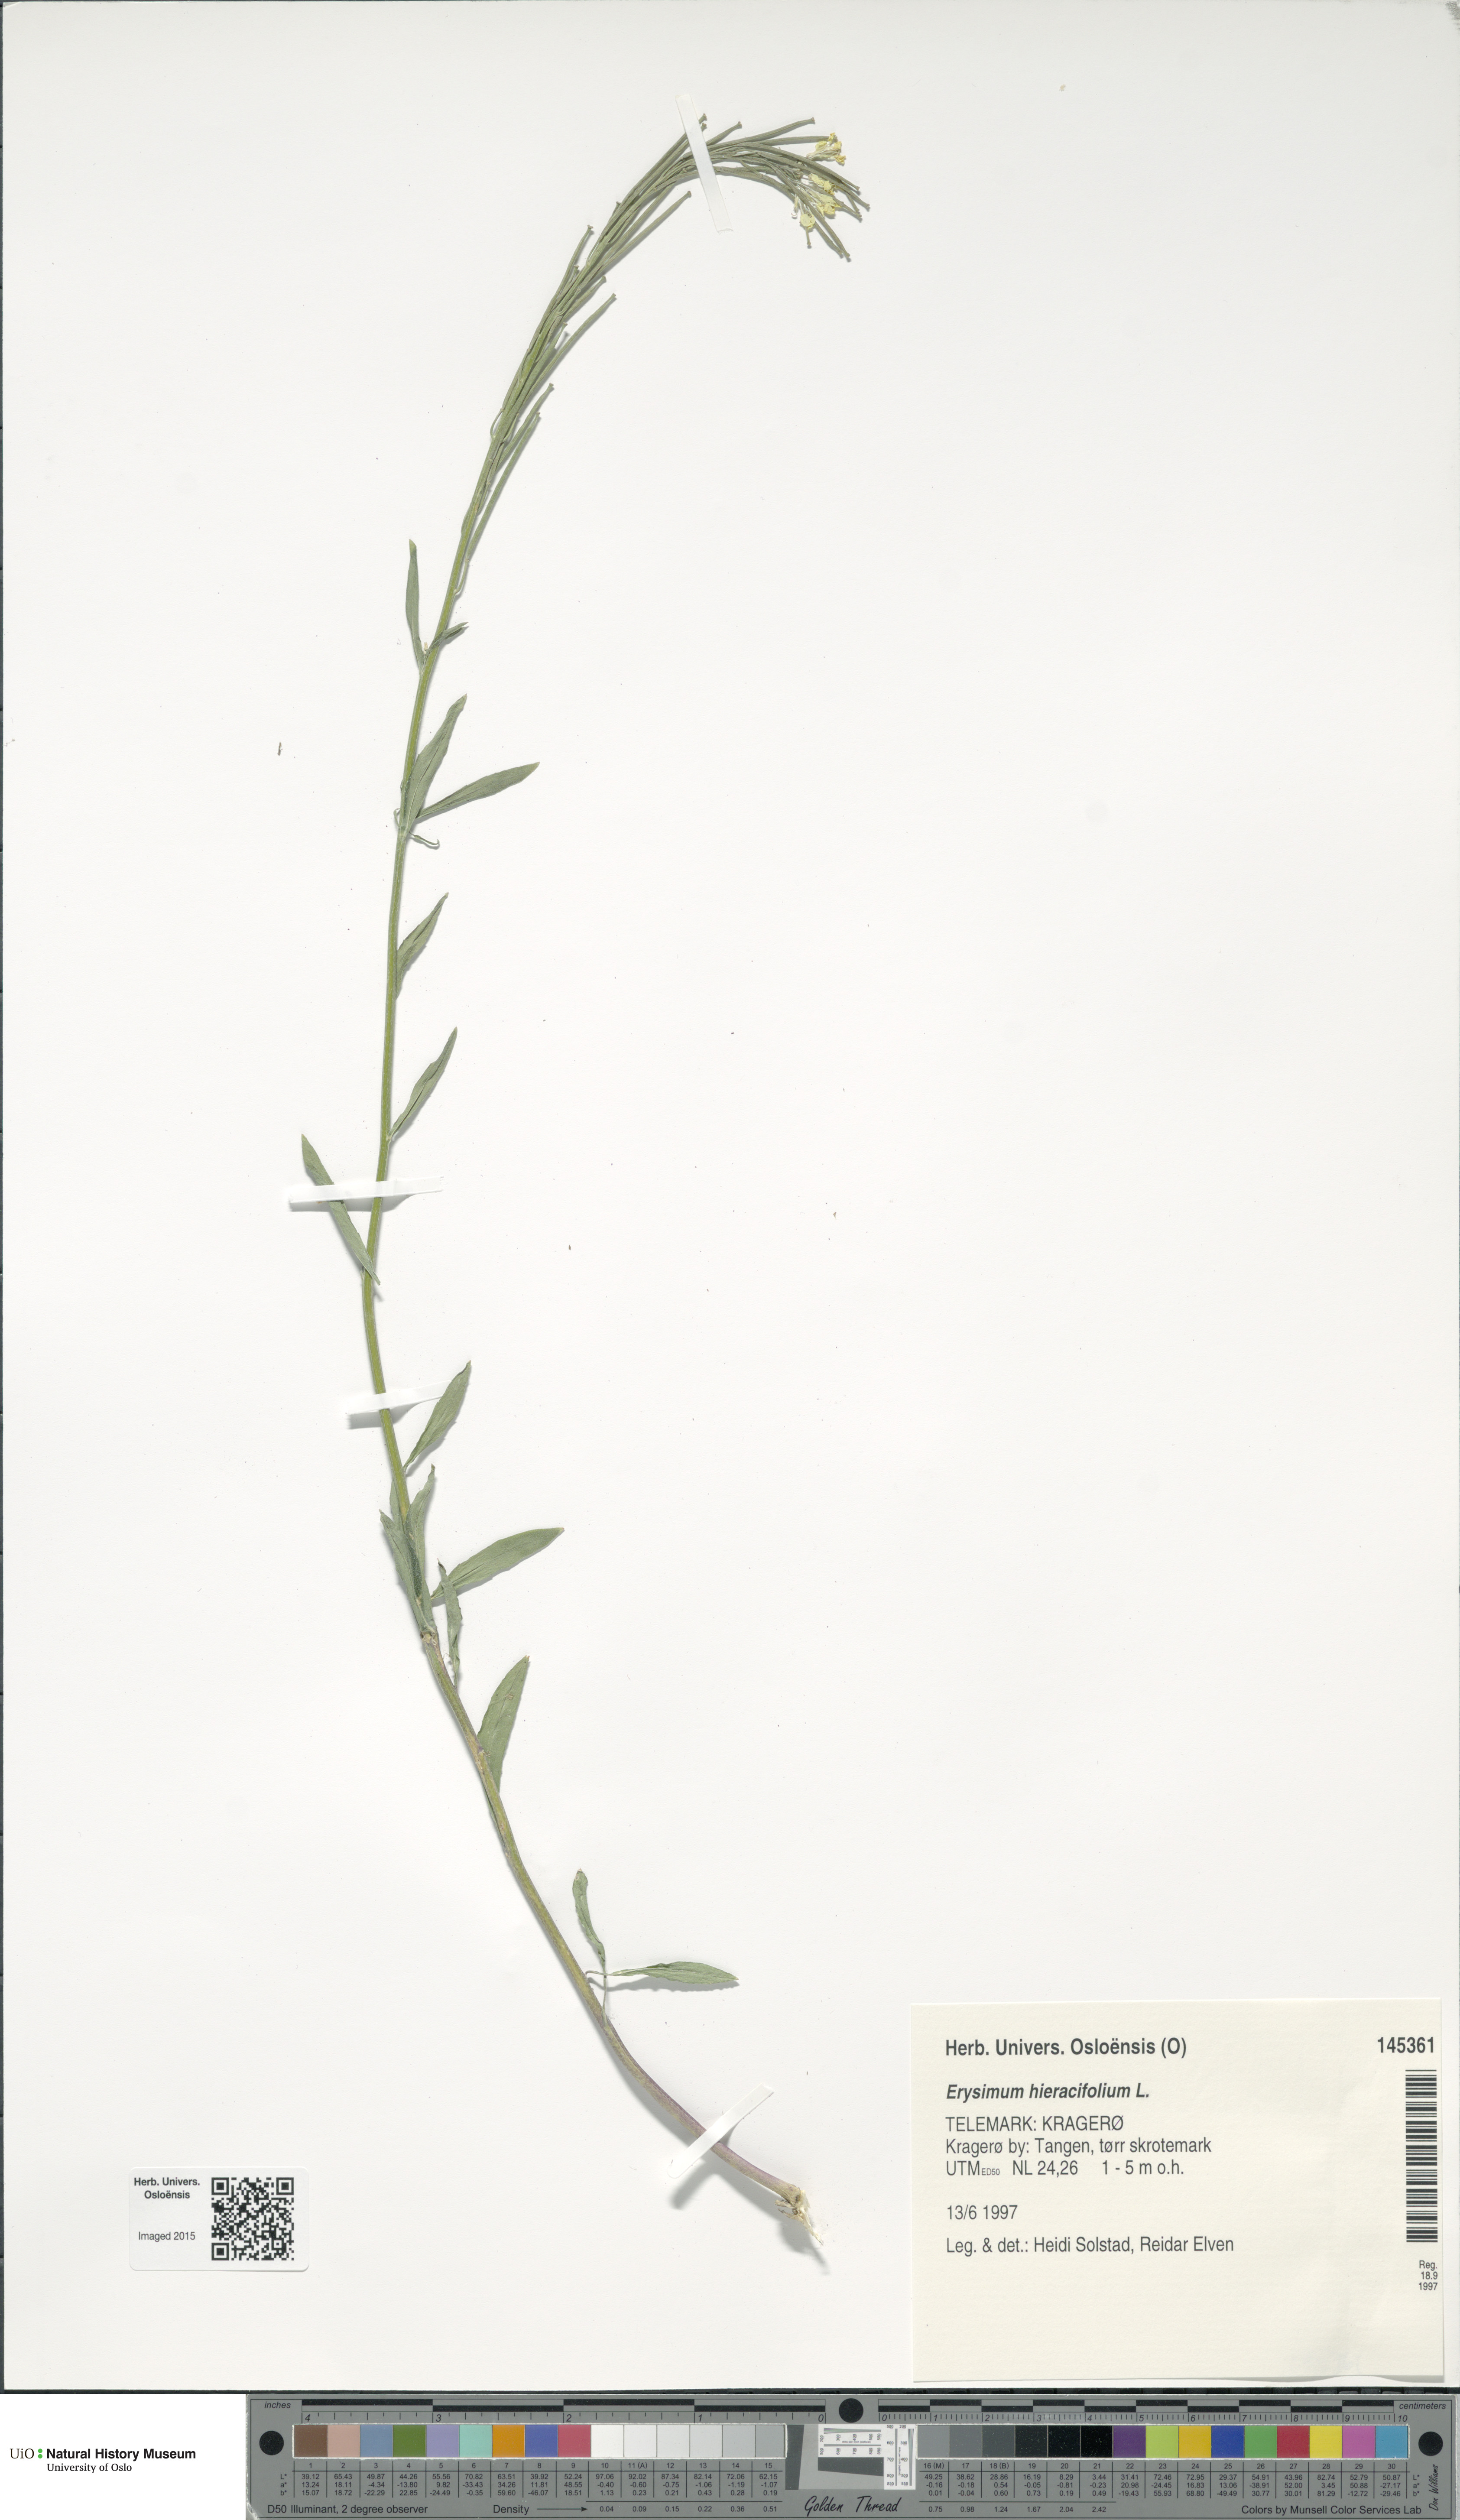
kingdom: Plantae
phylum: Tracheophyta
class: Magnoliopsida
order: Brassicales
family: Brassicaceae
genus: Erysimum
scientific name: Erysimum hieraciifolium
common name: European wallflower
